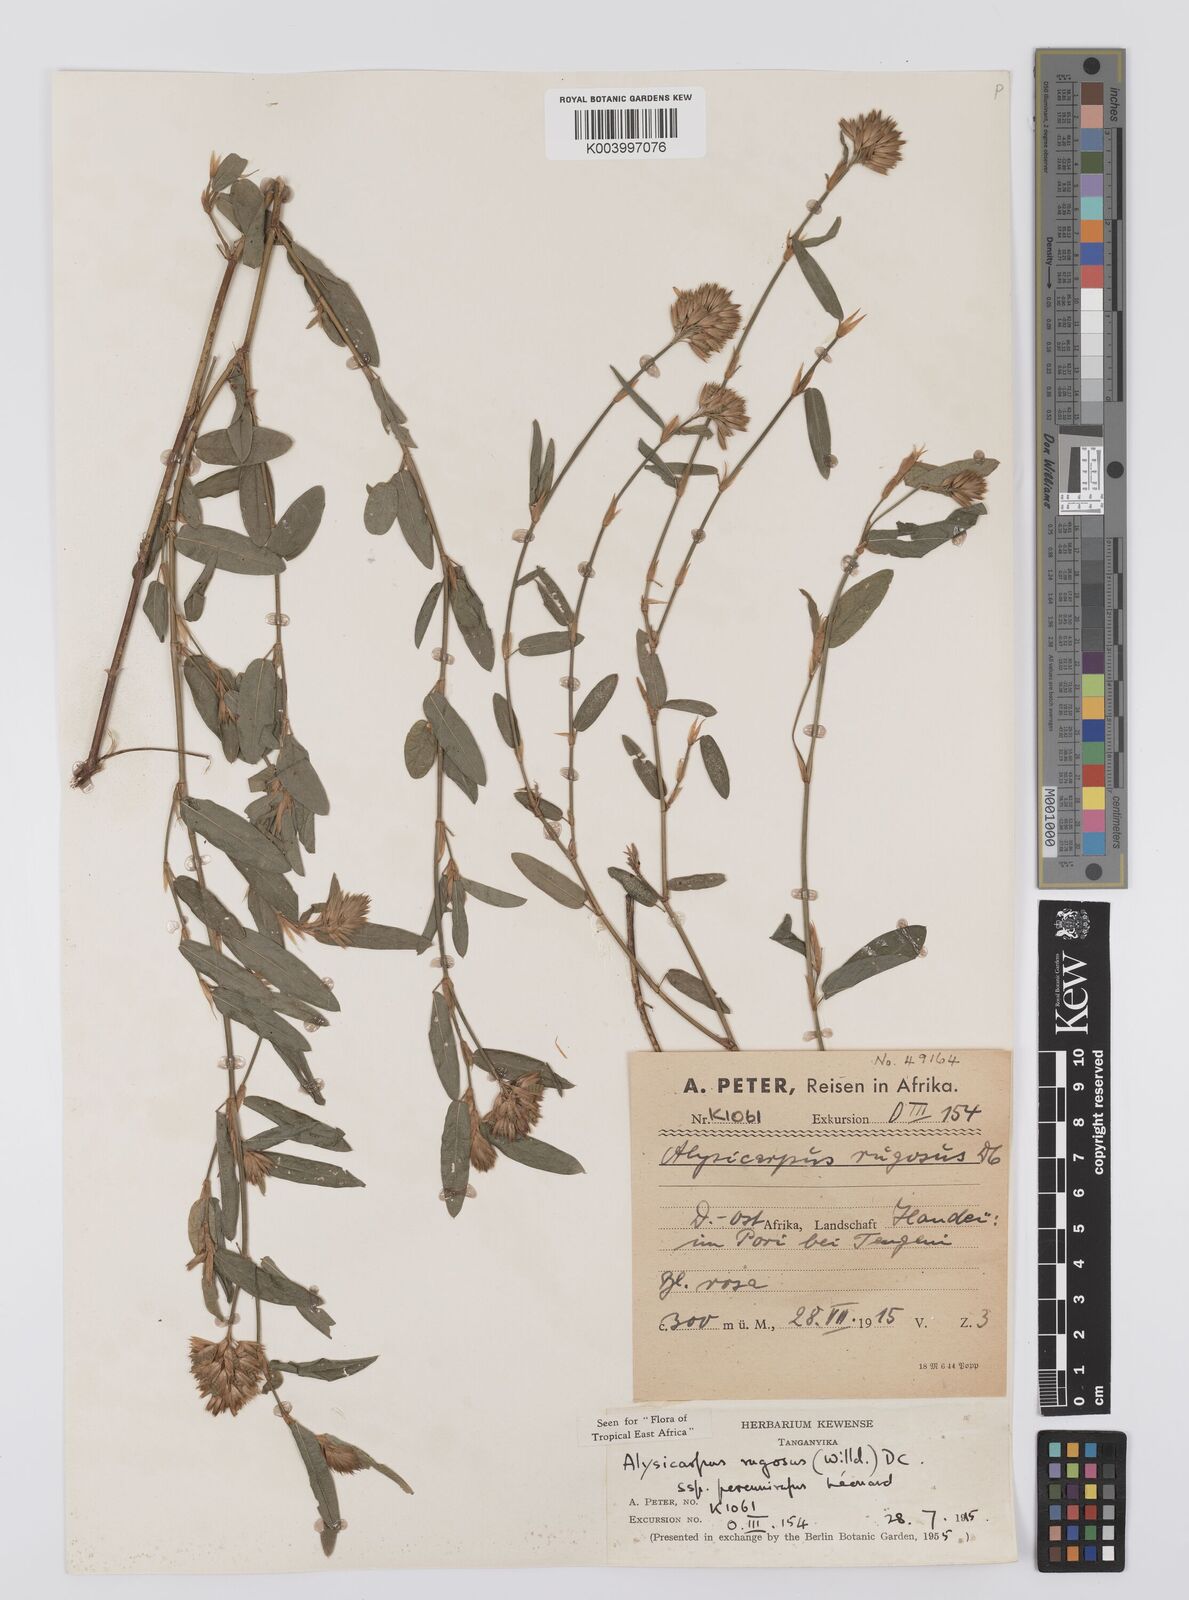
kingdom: Plantae
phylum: Tracheophyta
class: Magnoliopsida
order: Fabales
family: Fabaceae
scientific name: Fabaceae
